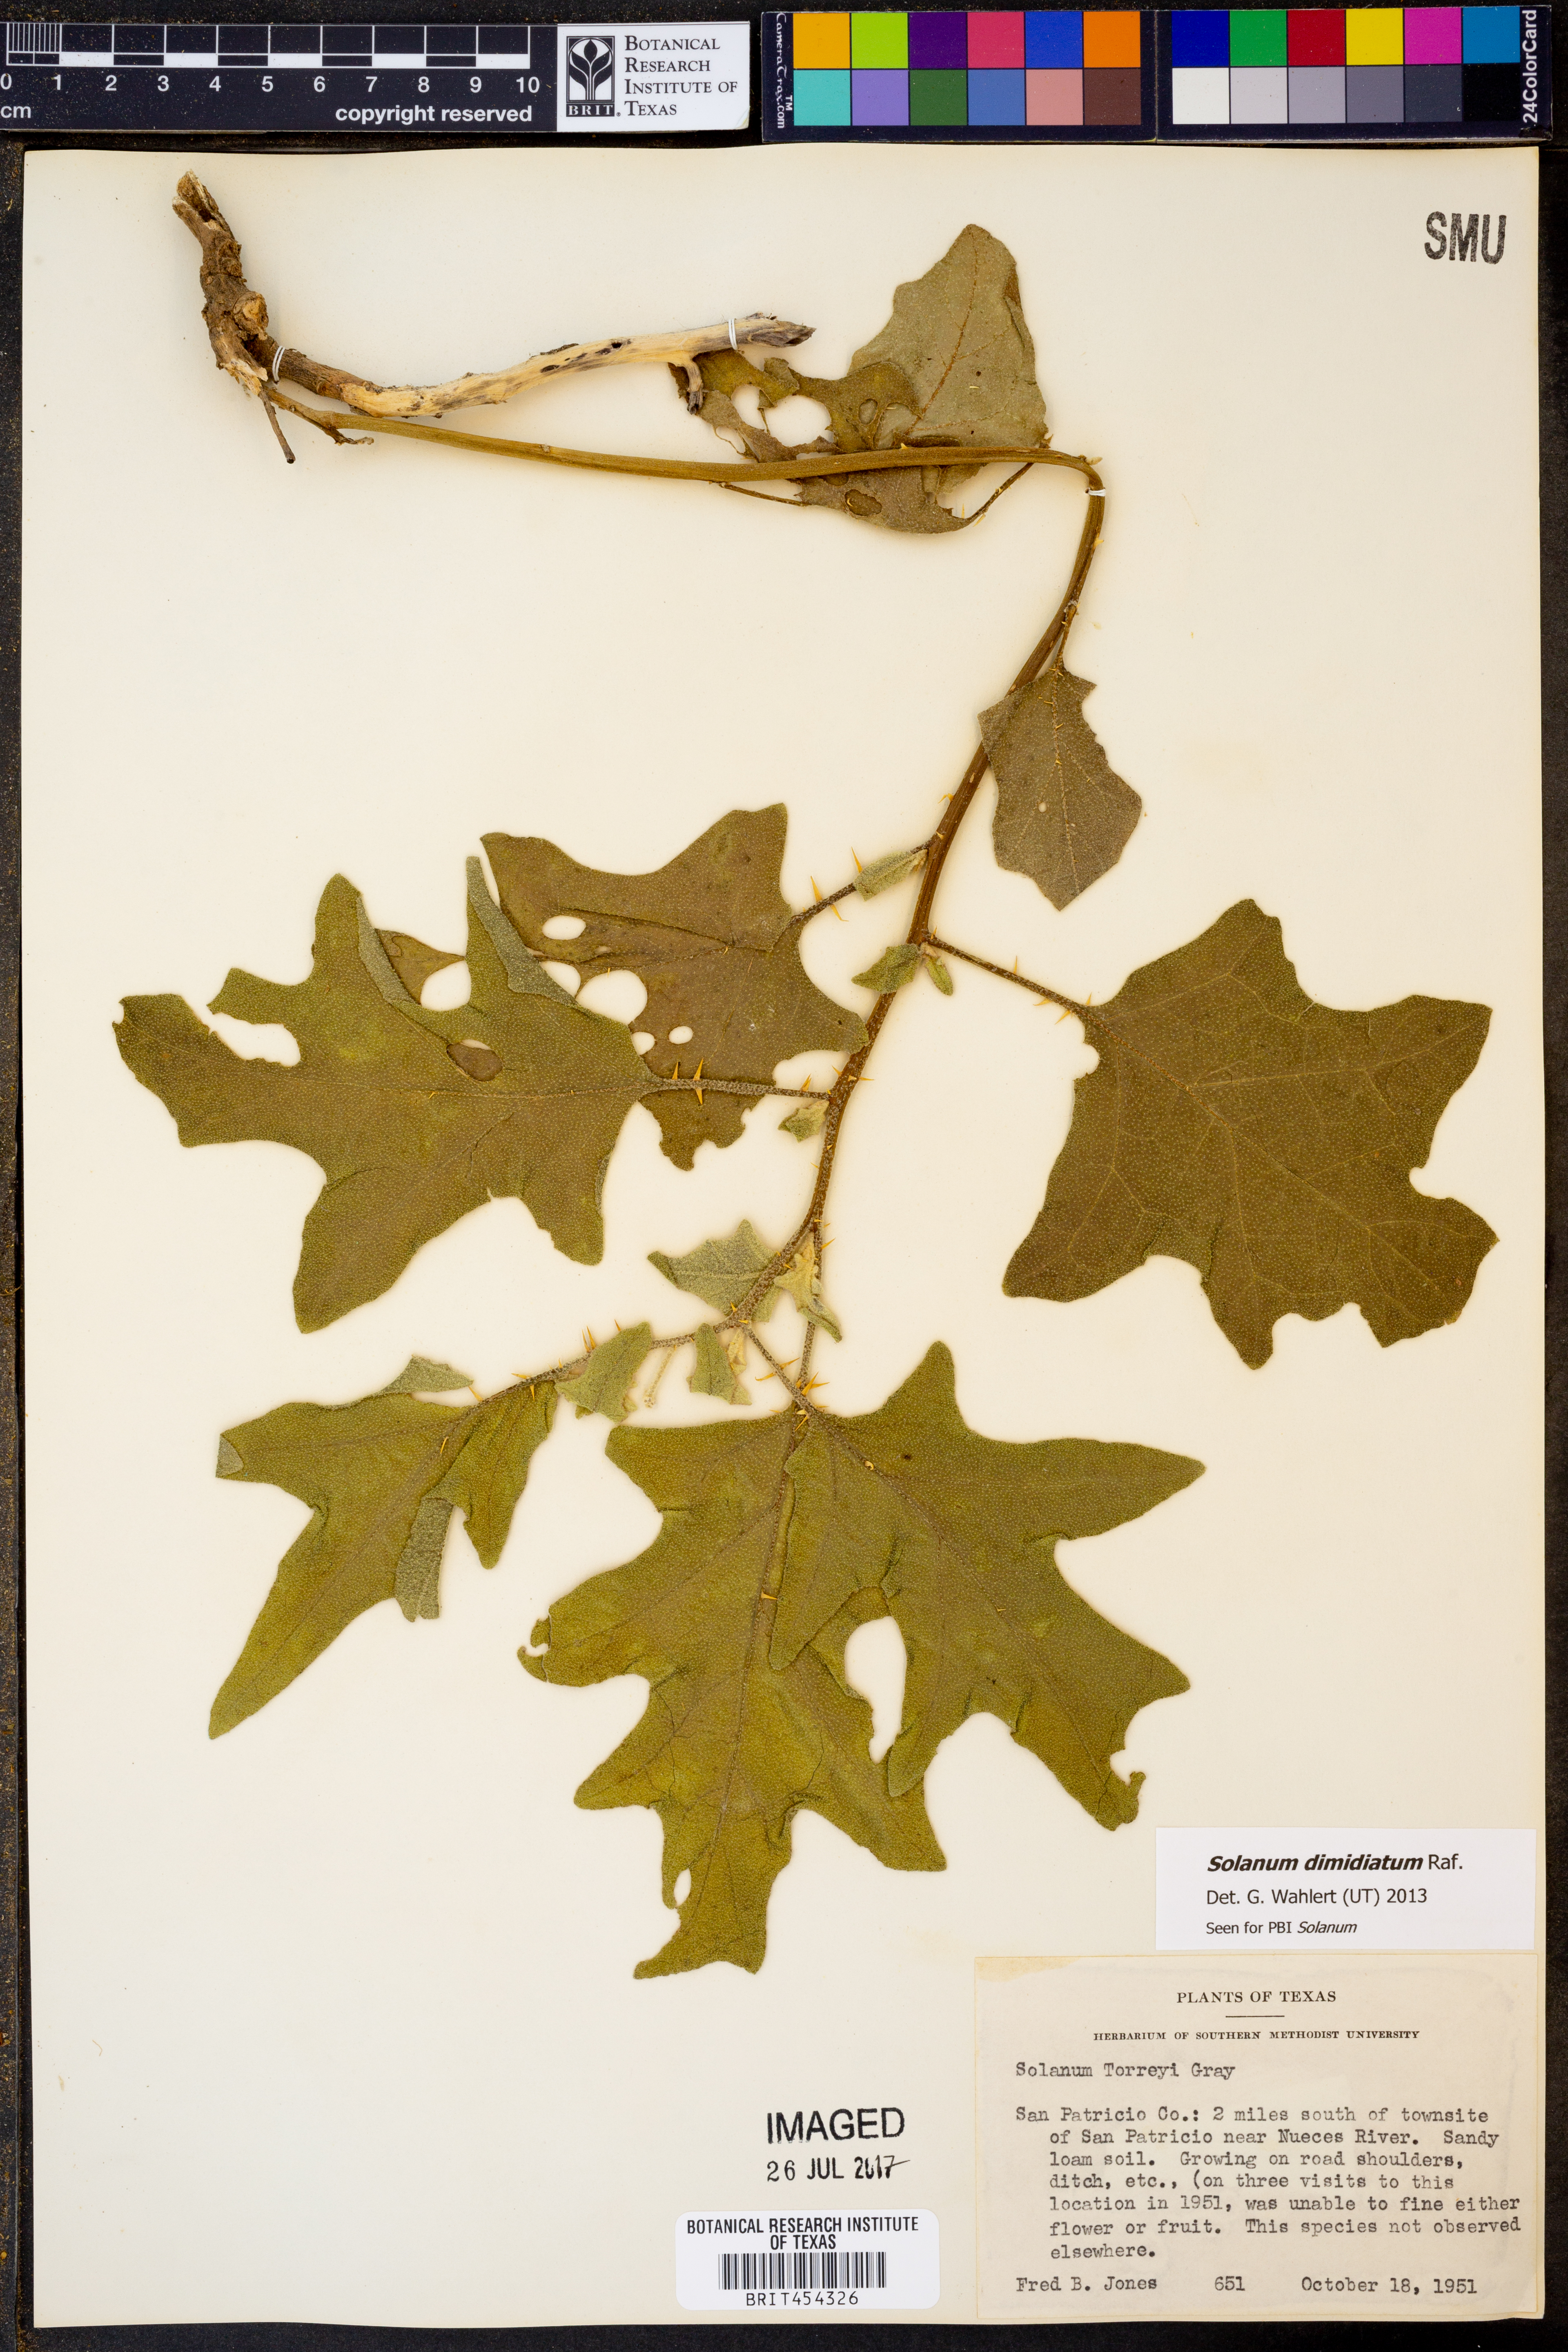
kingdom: Plantae
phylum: Tracheophyta
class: Magnoliopsida
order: Solanales
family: Solanaceae
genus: Solanum
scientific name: Solanum dimidiatum
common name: Carolina horse-nettle
